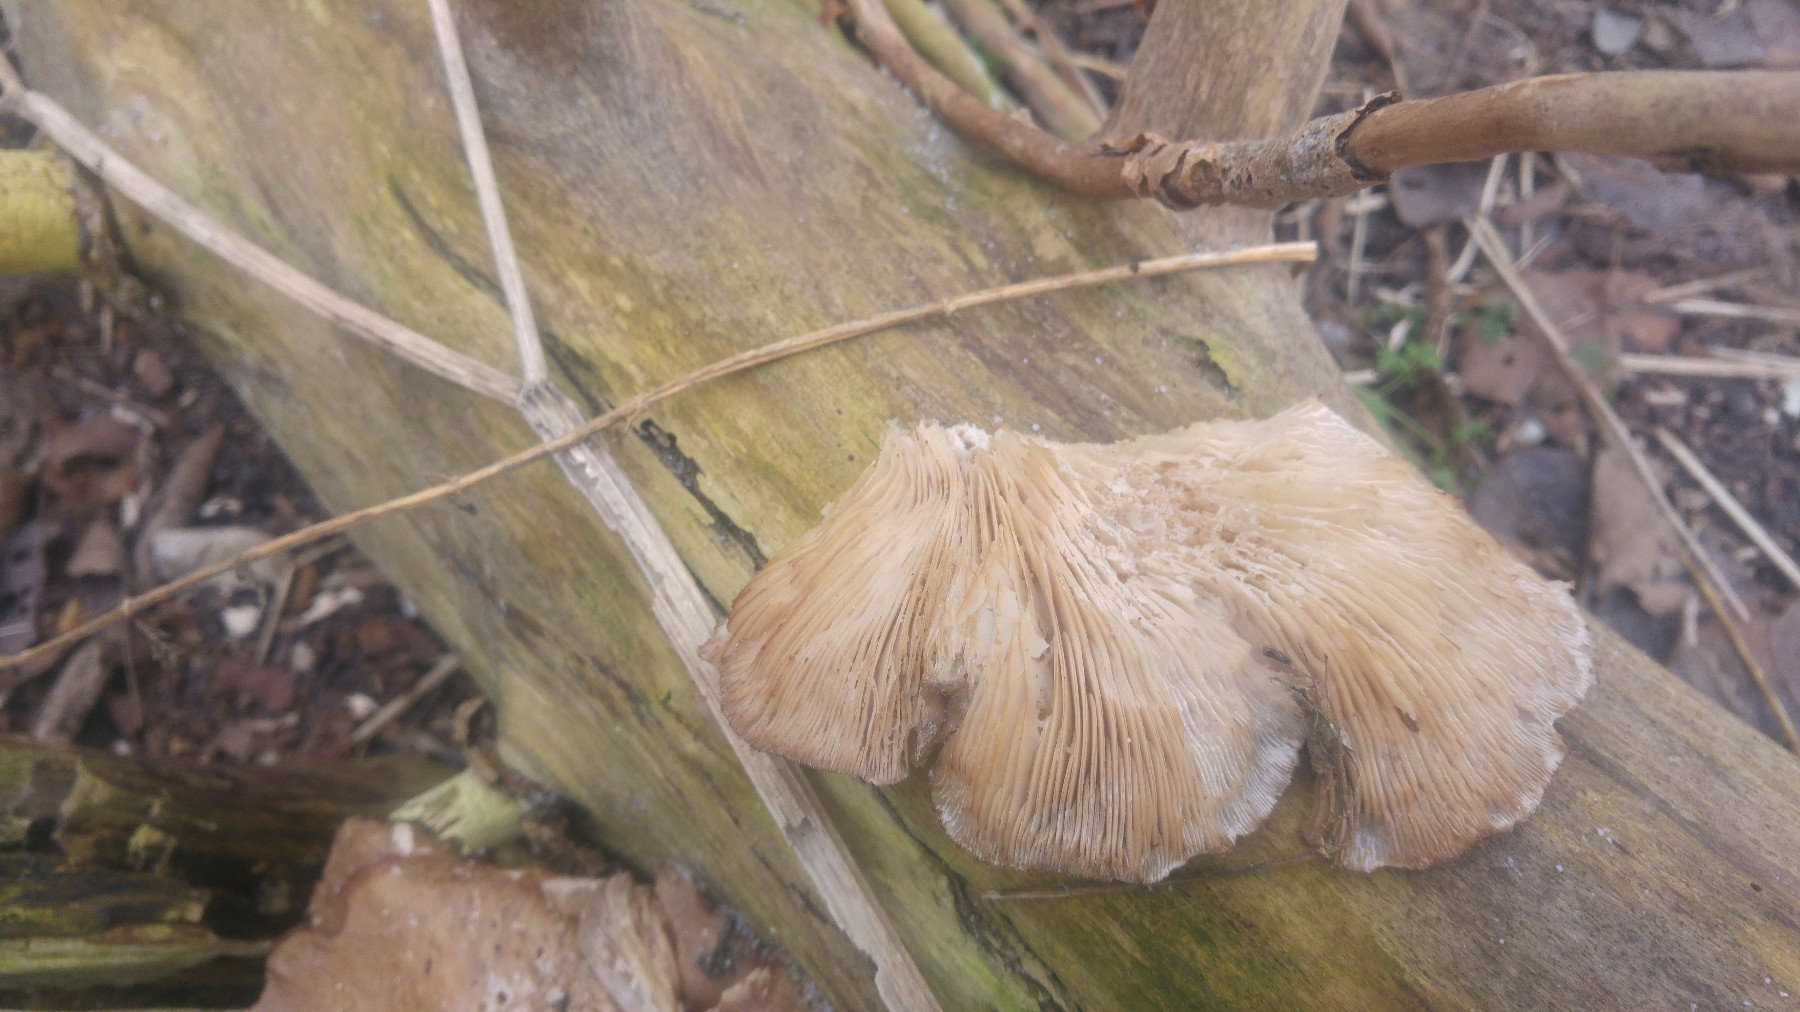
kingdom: Fungi
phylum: Basidiomycota
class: Agaricomycetes
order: Agaricales
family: Pleurotaceae
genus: Pleurotus
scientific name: Pleurotus ostreatus
